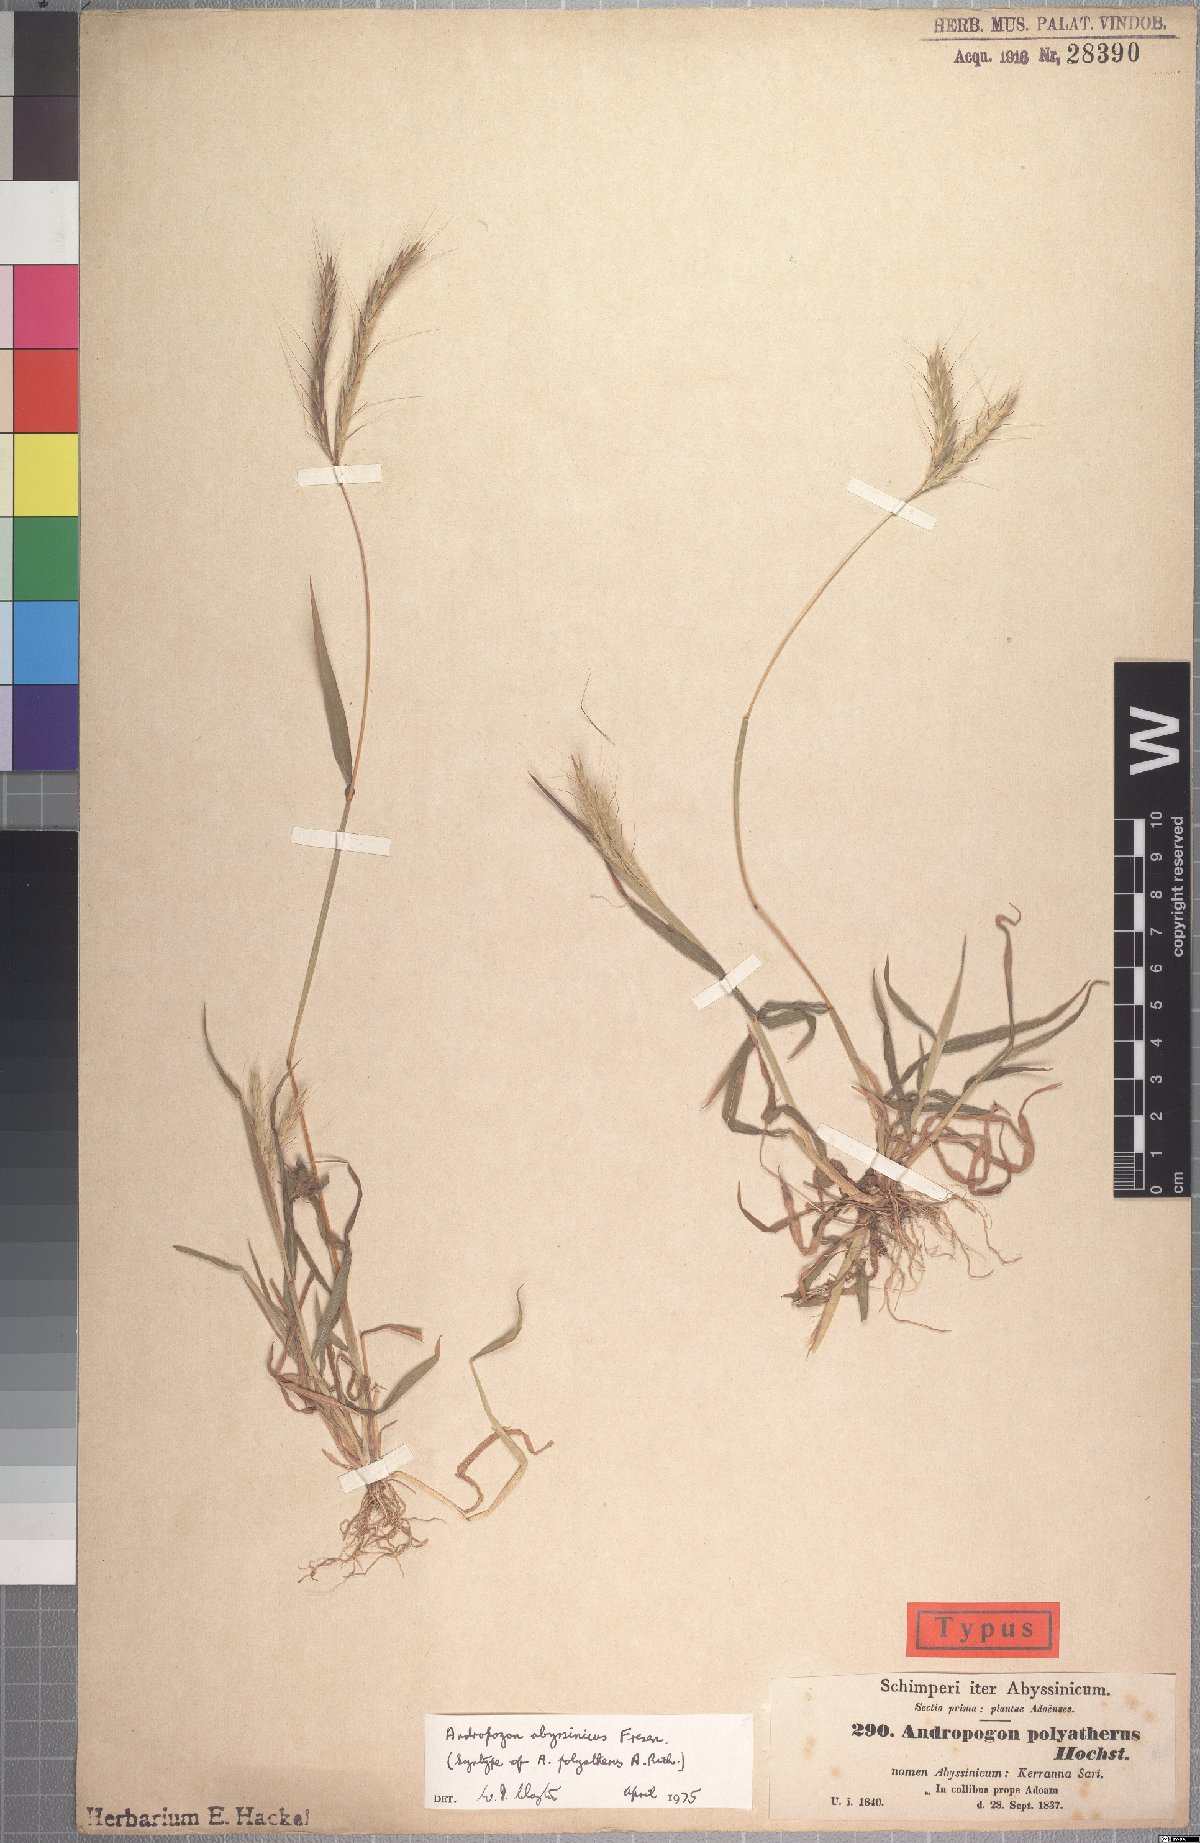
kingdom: Plantae
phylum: Tracheophyta
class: Liliopsida
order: Poales
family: Poaceae
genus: Andropogon
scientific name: Andropogon abyssinicus
